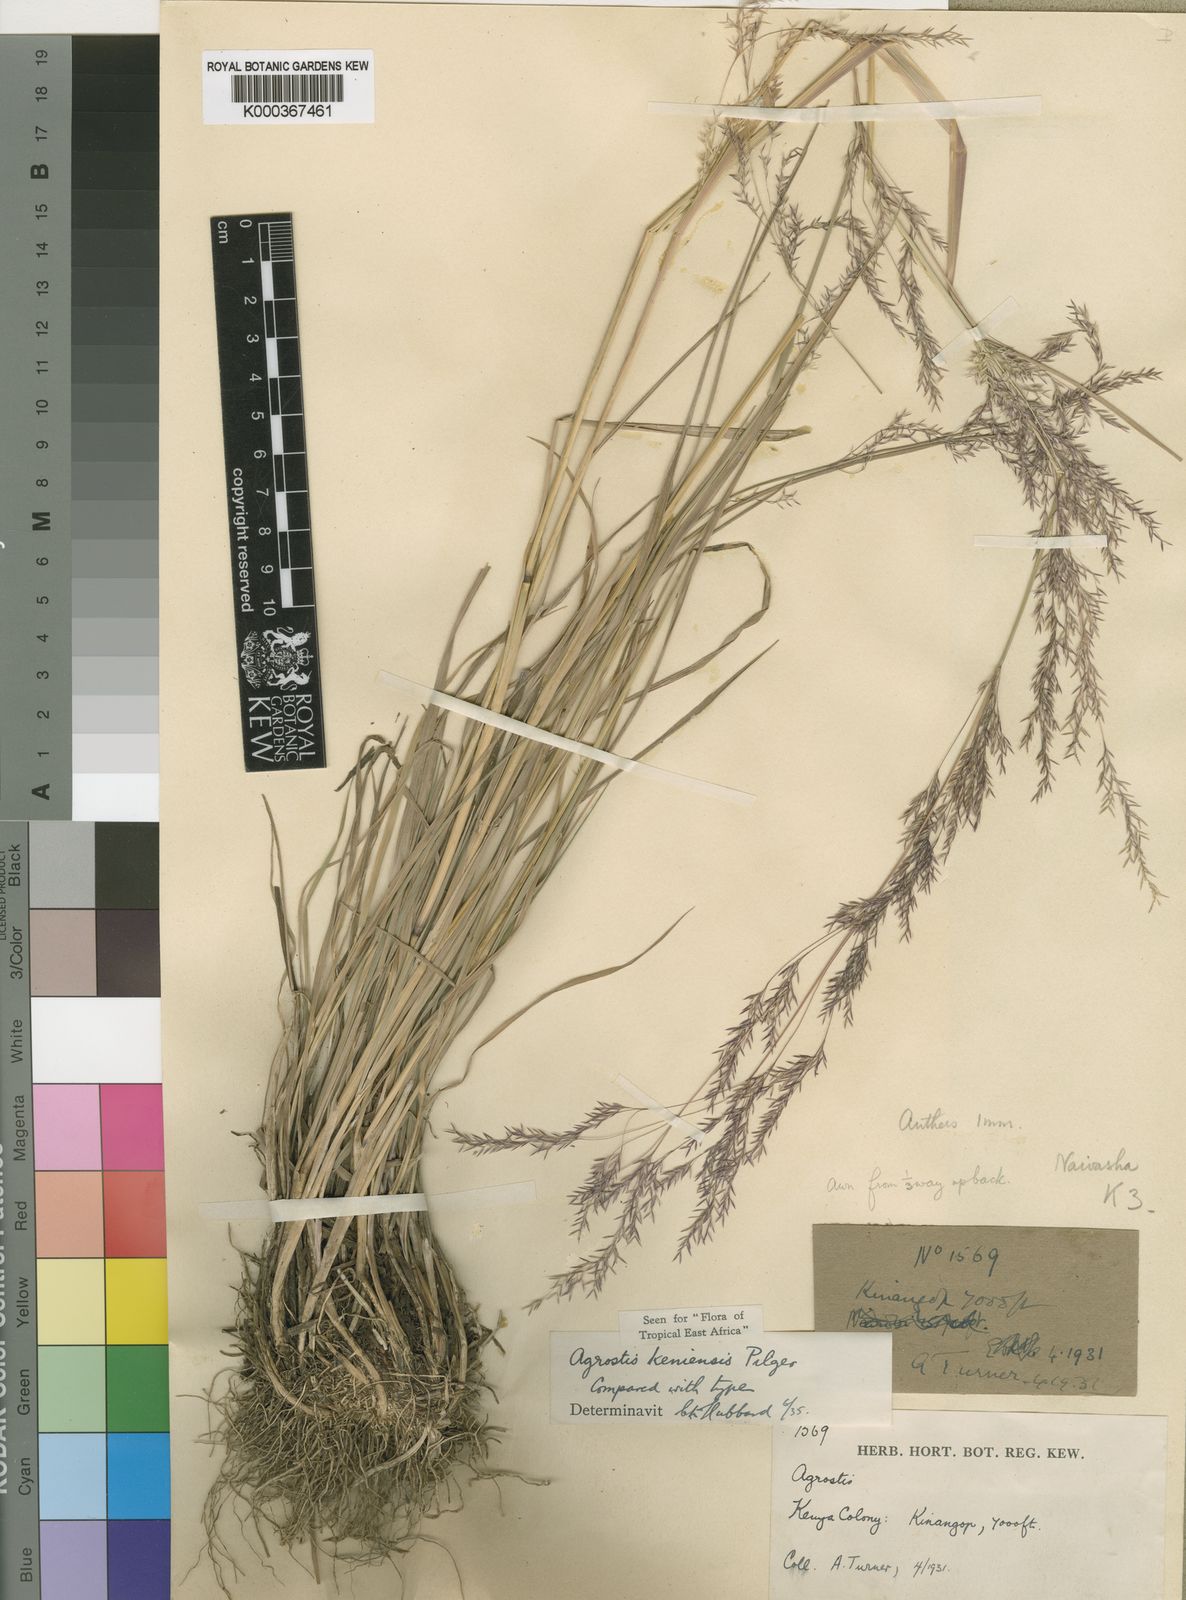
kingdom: Plantae
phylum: Tracheophyta
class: Liliopsida
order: Poales
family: Poaceae
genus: Agrostis
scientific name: Agrostis keniensis
